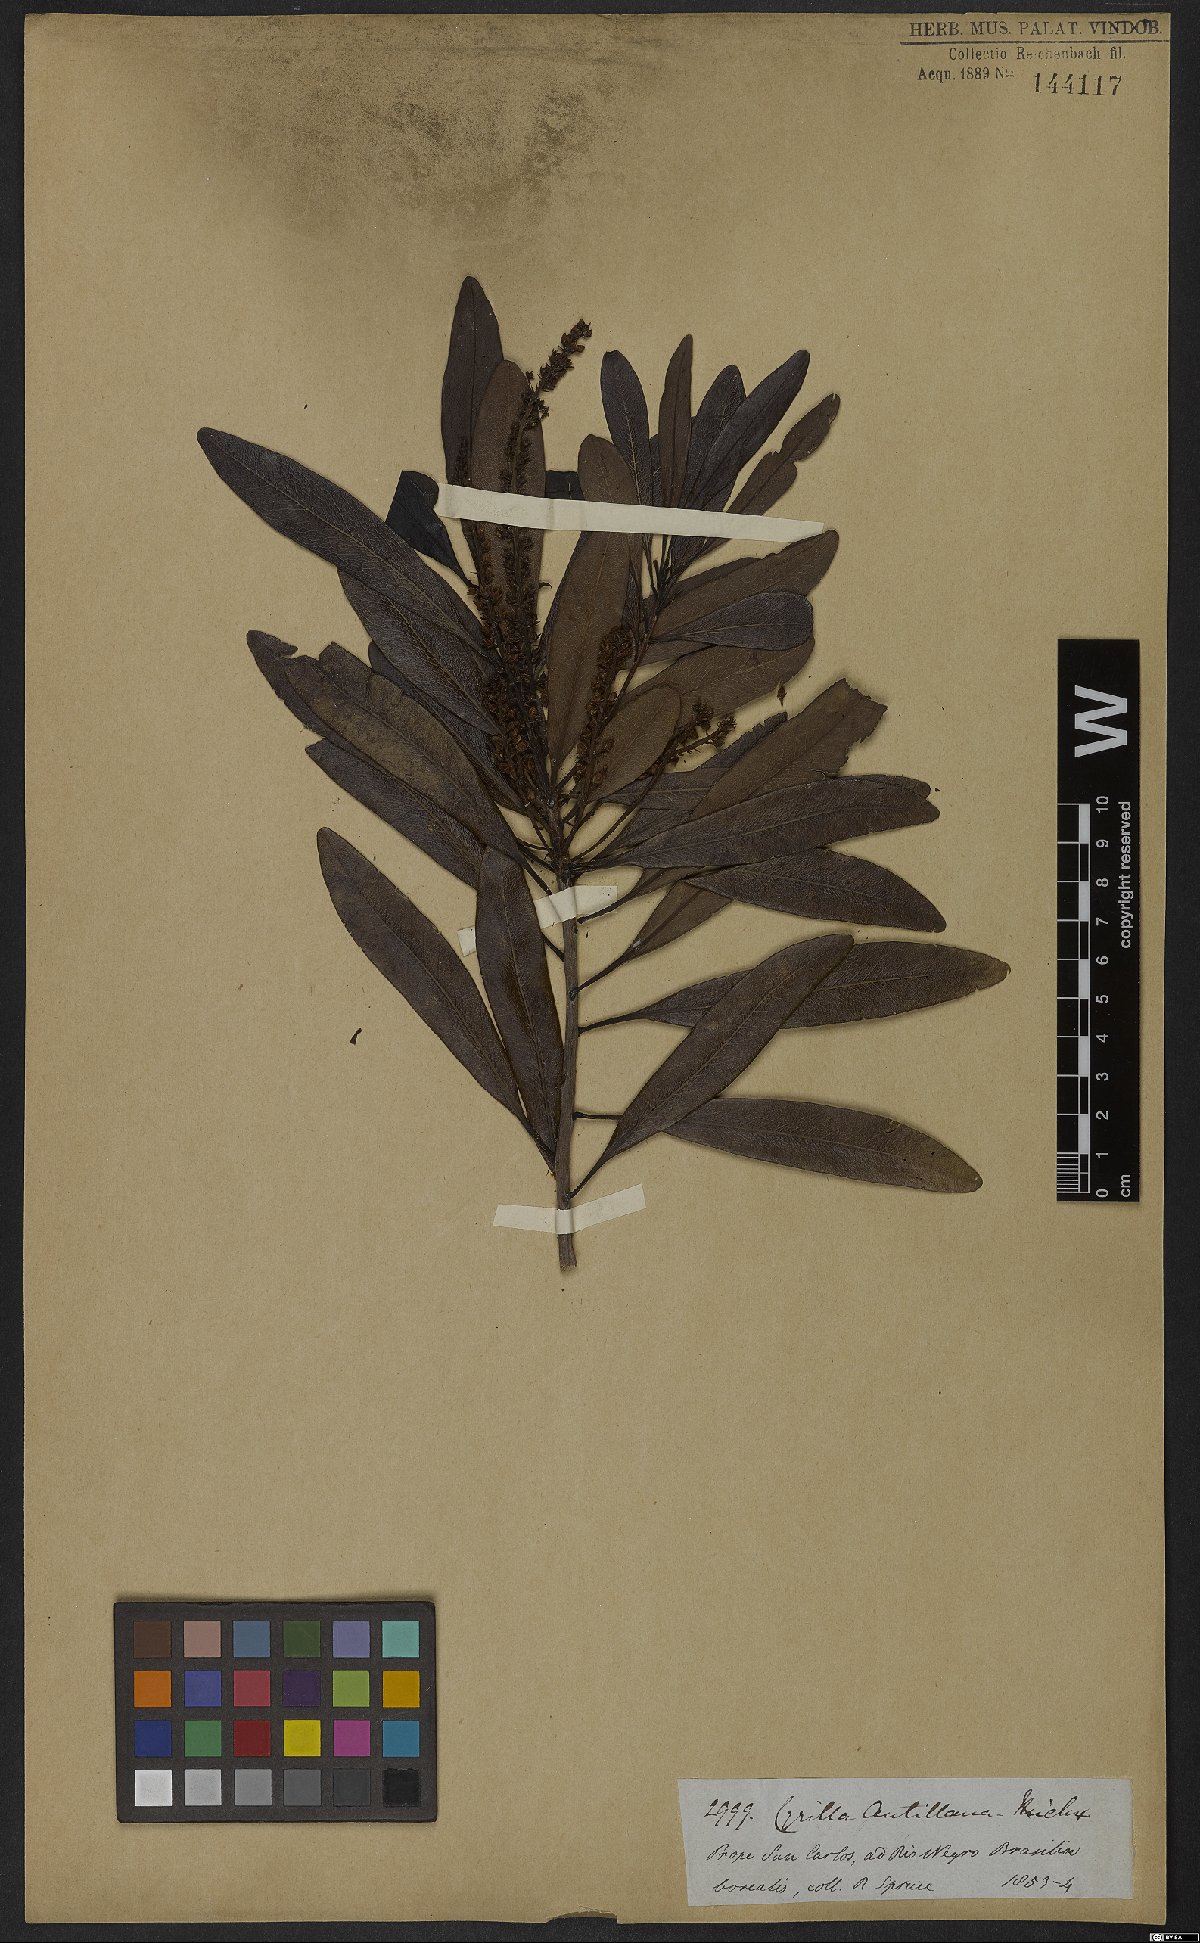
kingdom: Plantae
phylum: Tracheophyta
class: Magnoliopsida
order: Ericales
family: Cyrillaceae
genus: Cyrilla
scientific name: Cyrilla racemiflora
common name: Black titi
